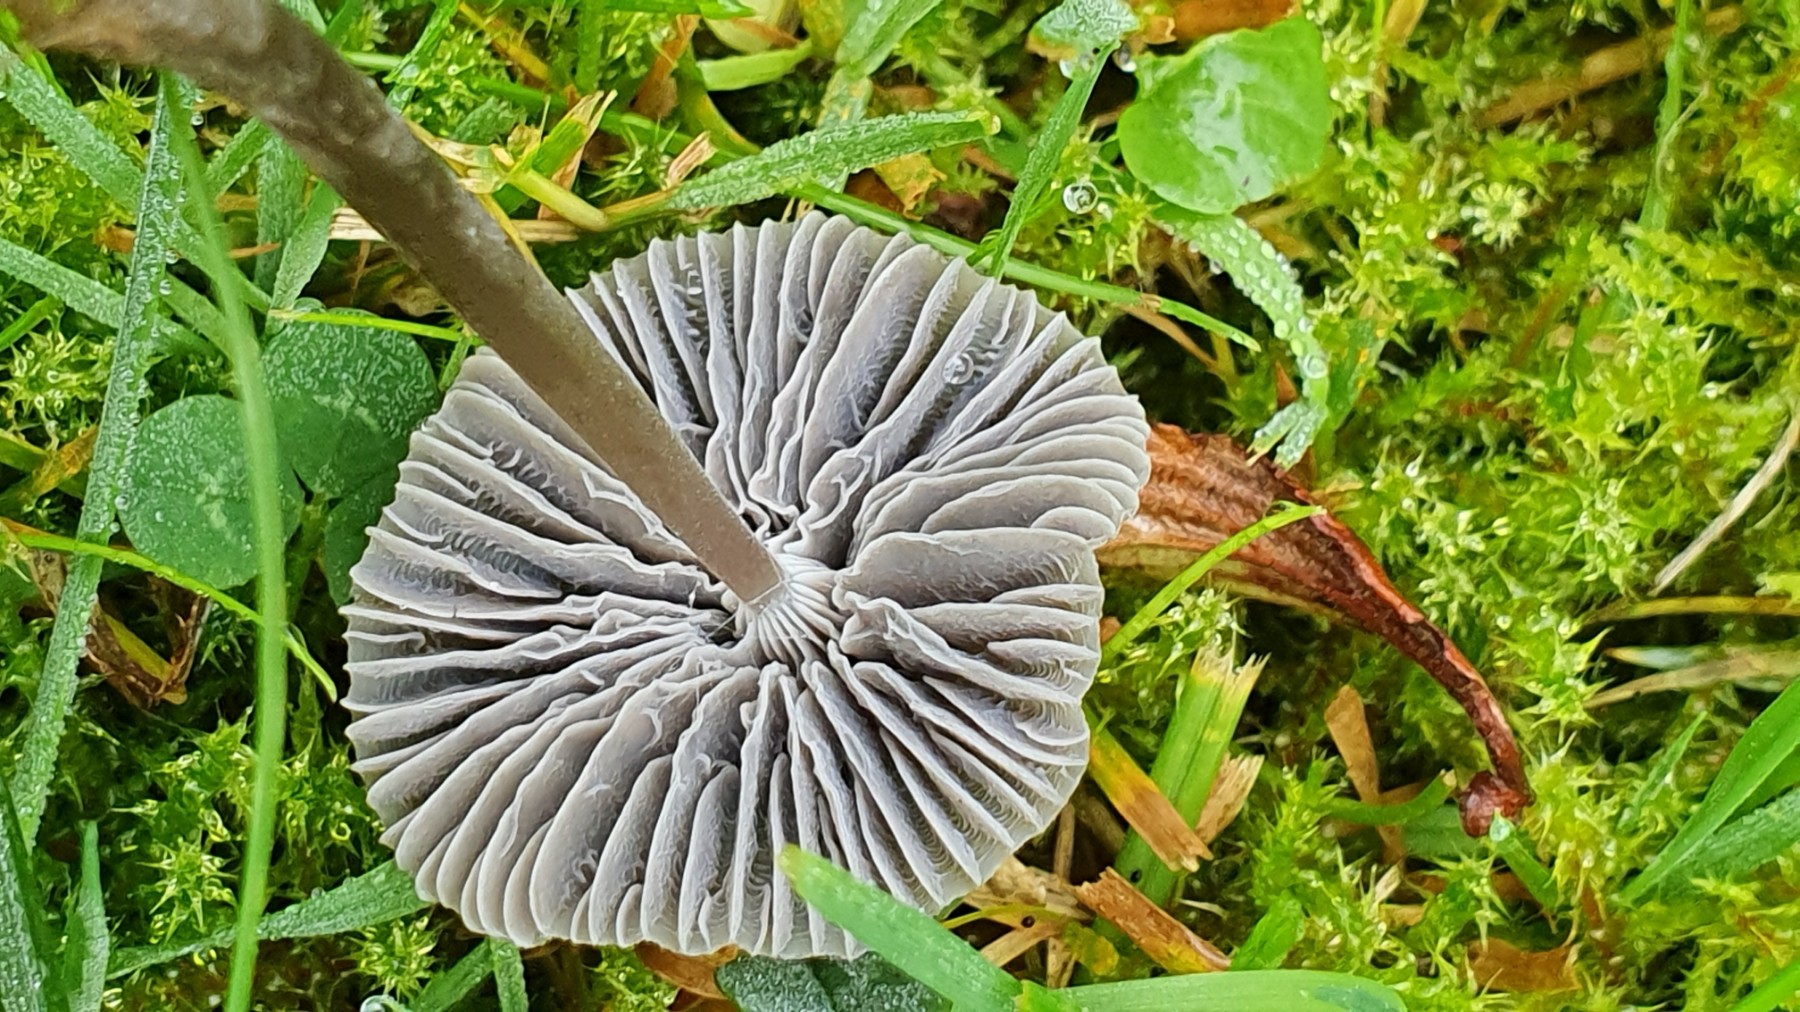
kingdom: Fungi
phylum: Basidiomycota
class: Agaricomycetes
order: Agaricales
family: Mycenaceae
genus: Mycena
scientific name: Mycena aetites
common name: plæne-huesvamp
